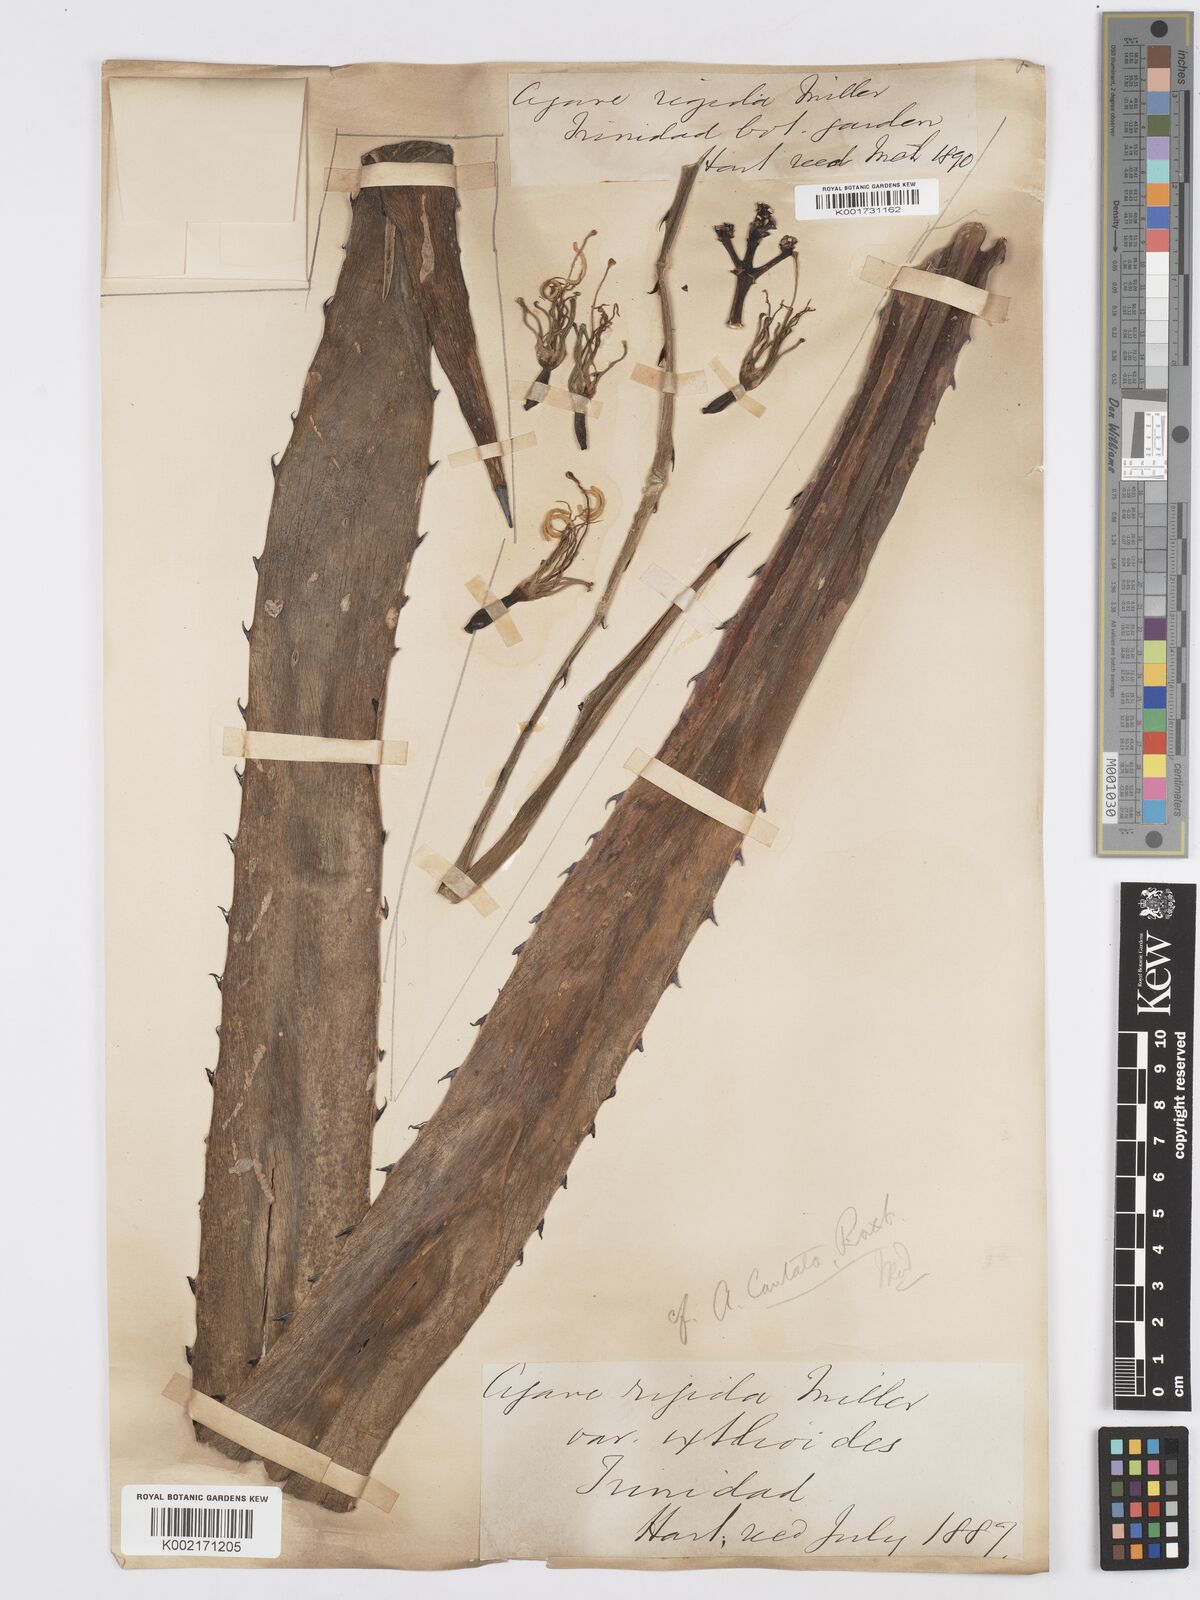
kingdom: Plantae
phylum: Tracheophyta
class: Liliopsida
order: Asparagales
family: Asparagaceae
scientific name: Asparagaceae
